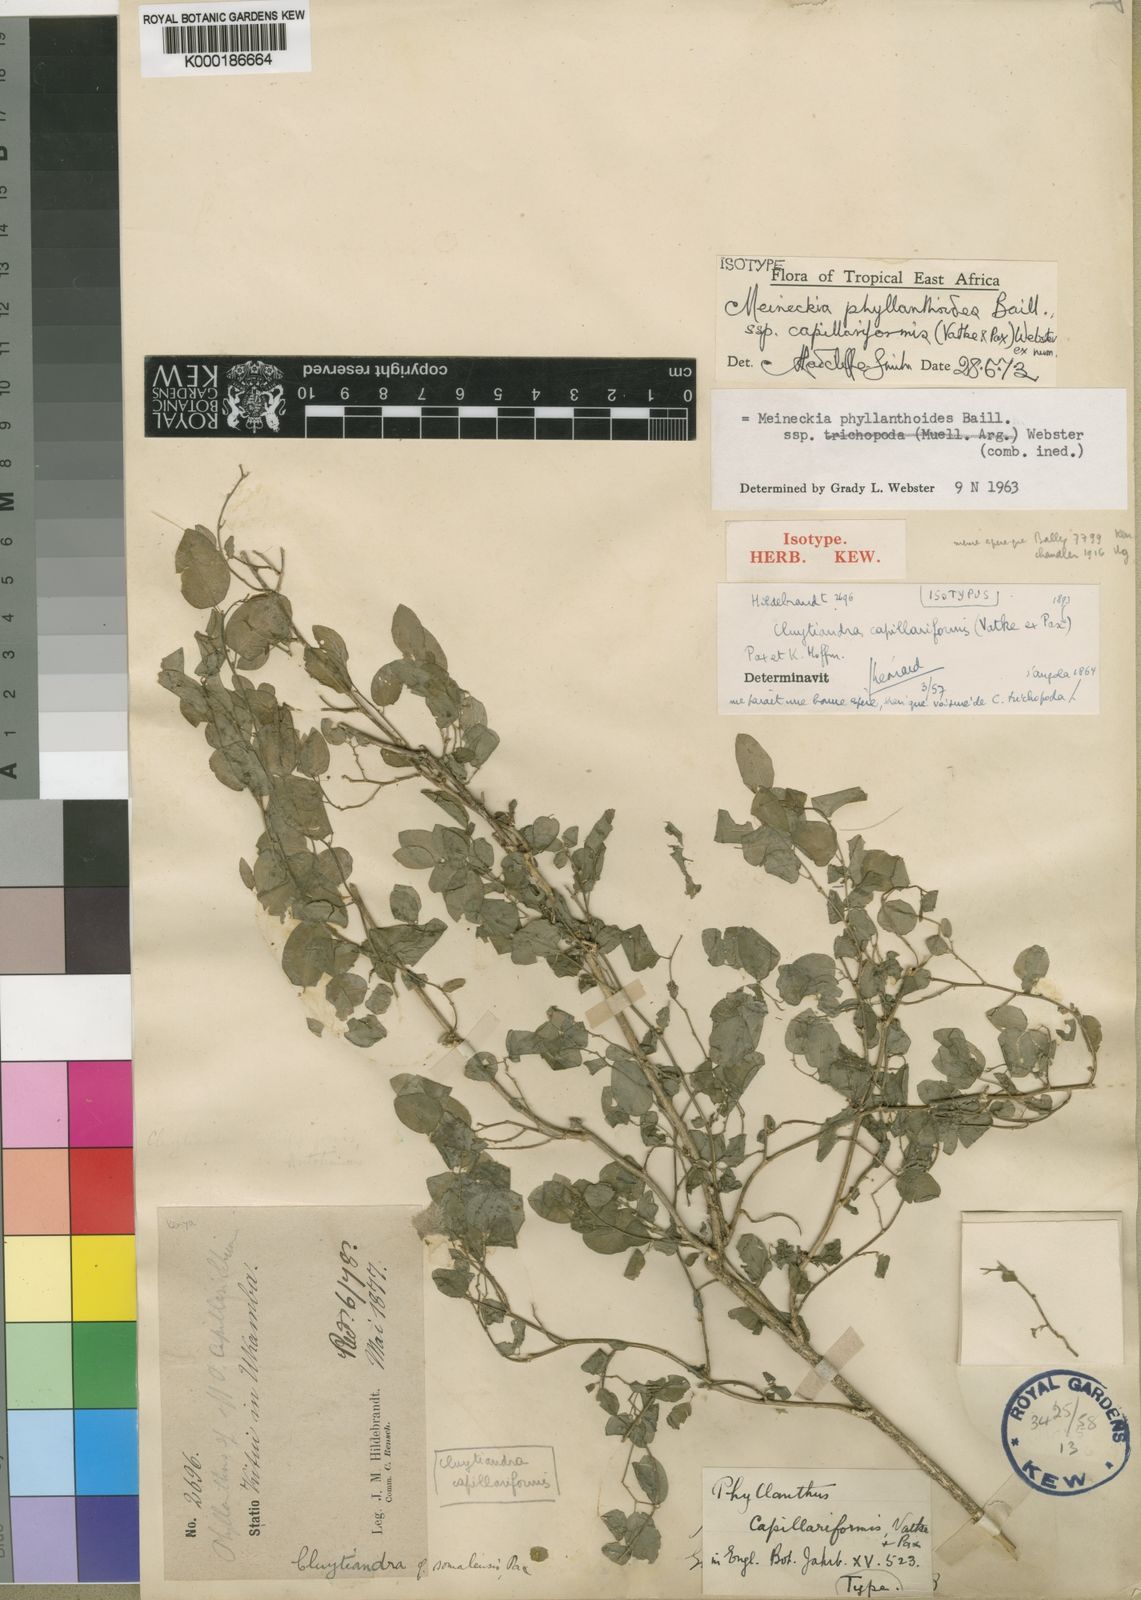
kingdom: Plantae
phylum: Tracheophyta
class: Magnoliopsida
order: Malpighiales
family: Phyllanthaceae
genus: Meineckia
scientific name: Meineckia phyllanthoides
